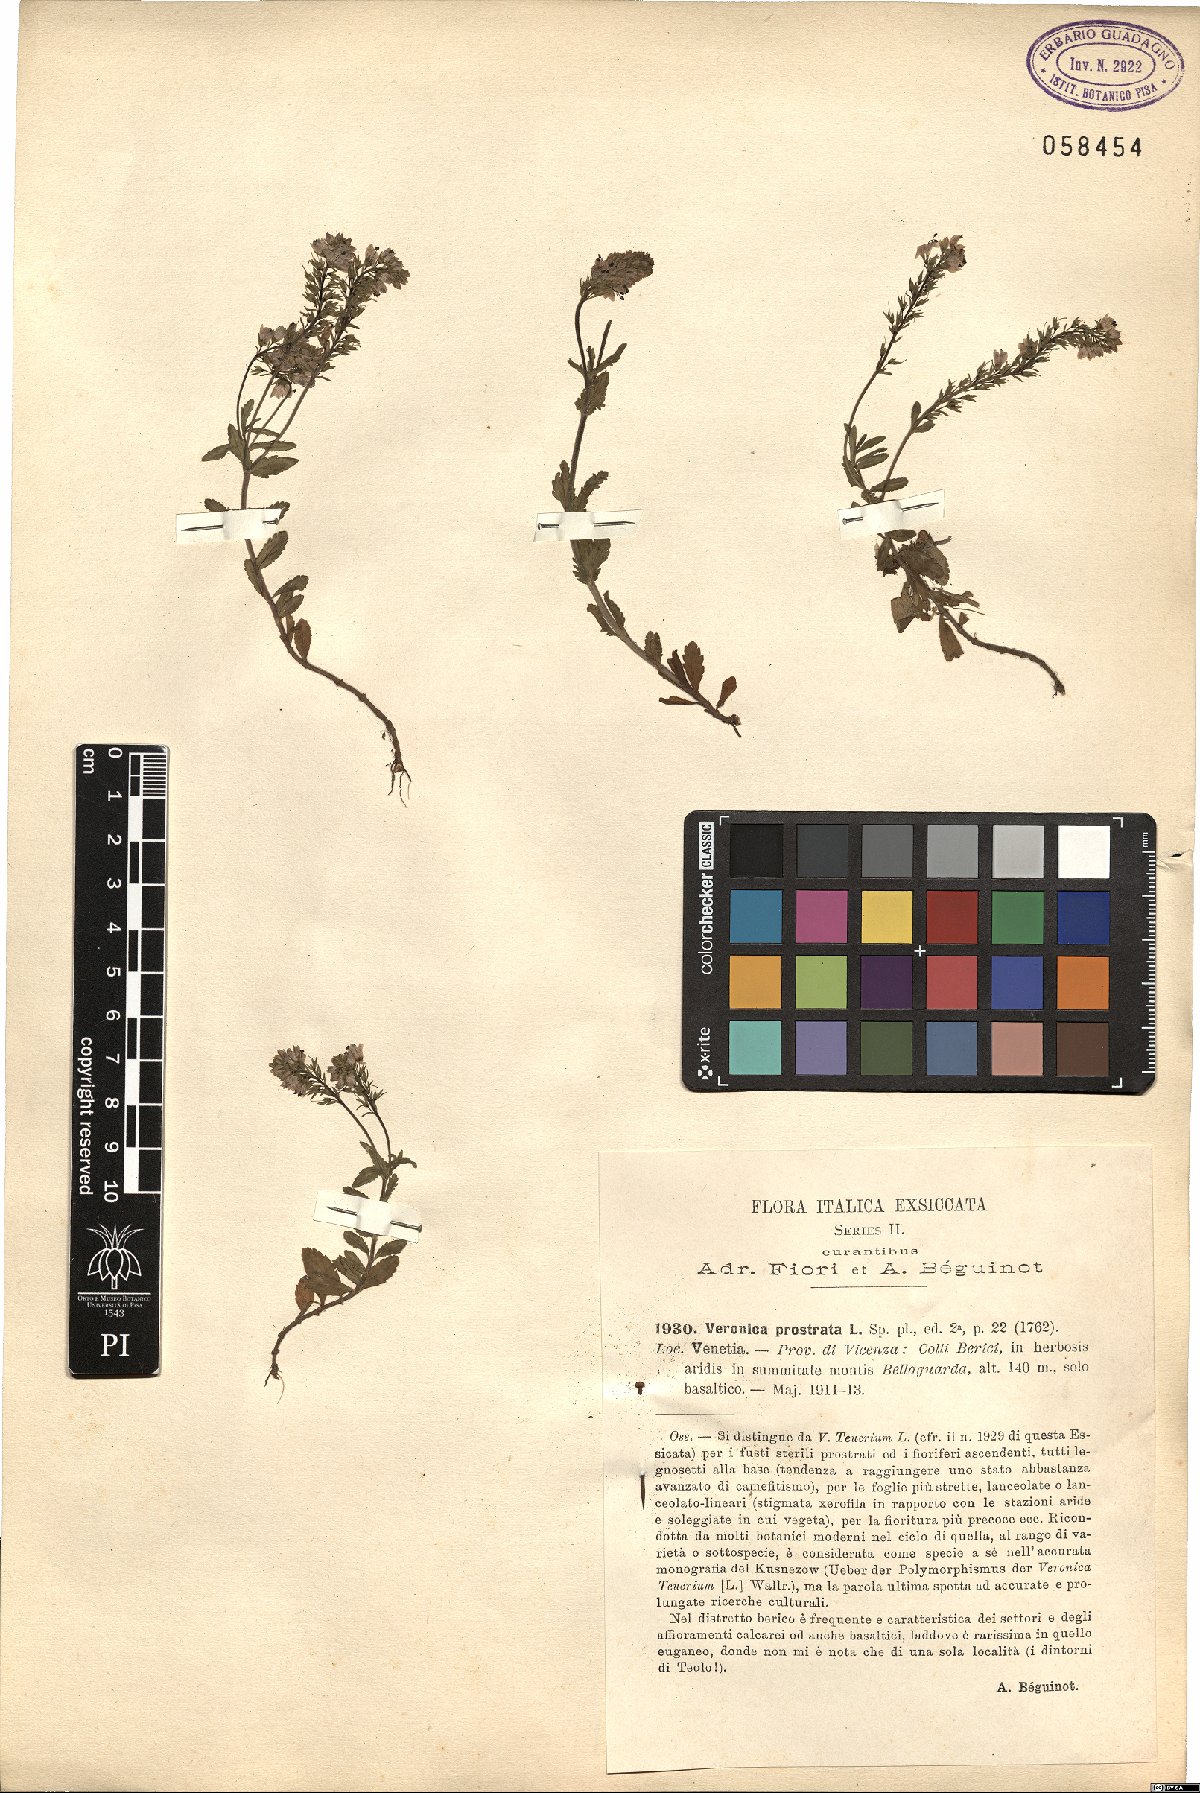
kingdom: Plantae
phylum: Tracheophyta
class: Magnoliopsida
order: Lamiales
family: Plantaginaceae
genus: Veronica
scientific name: Veronica prostrata
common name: Prostrate speedwell
